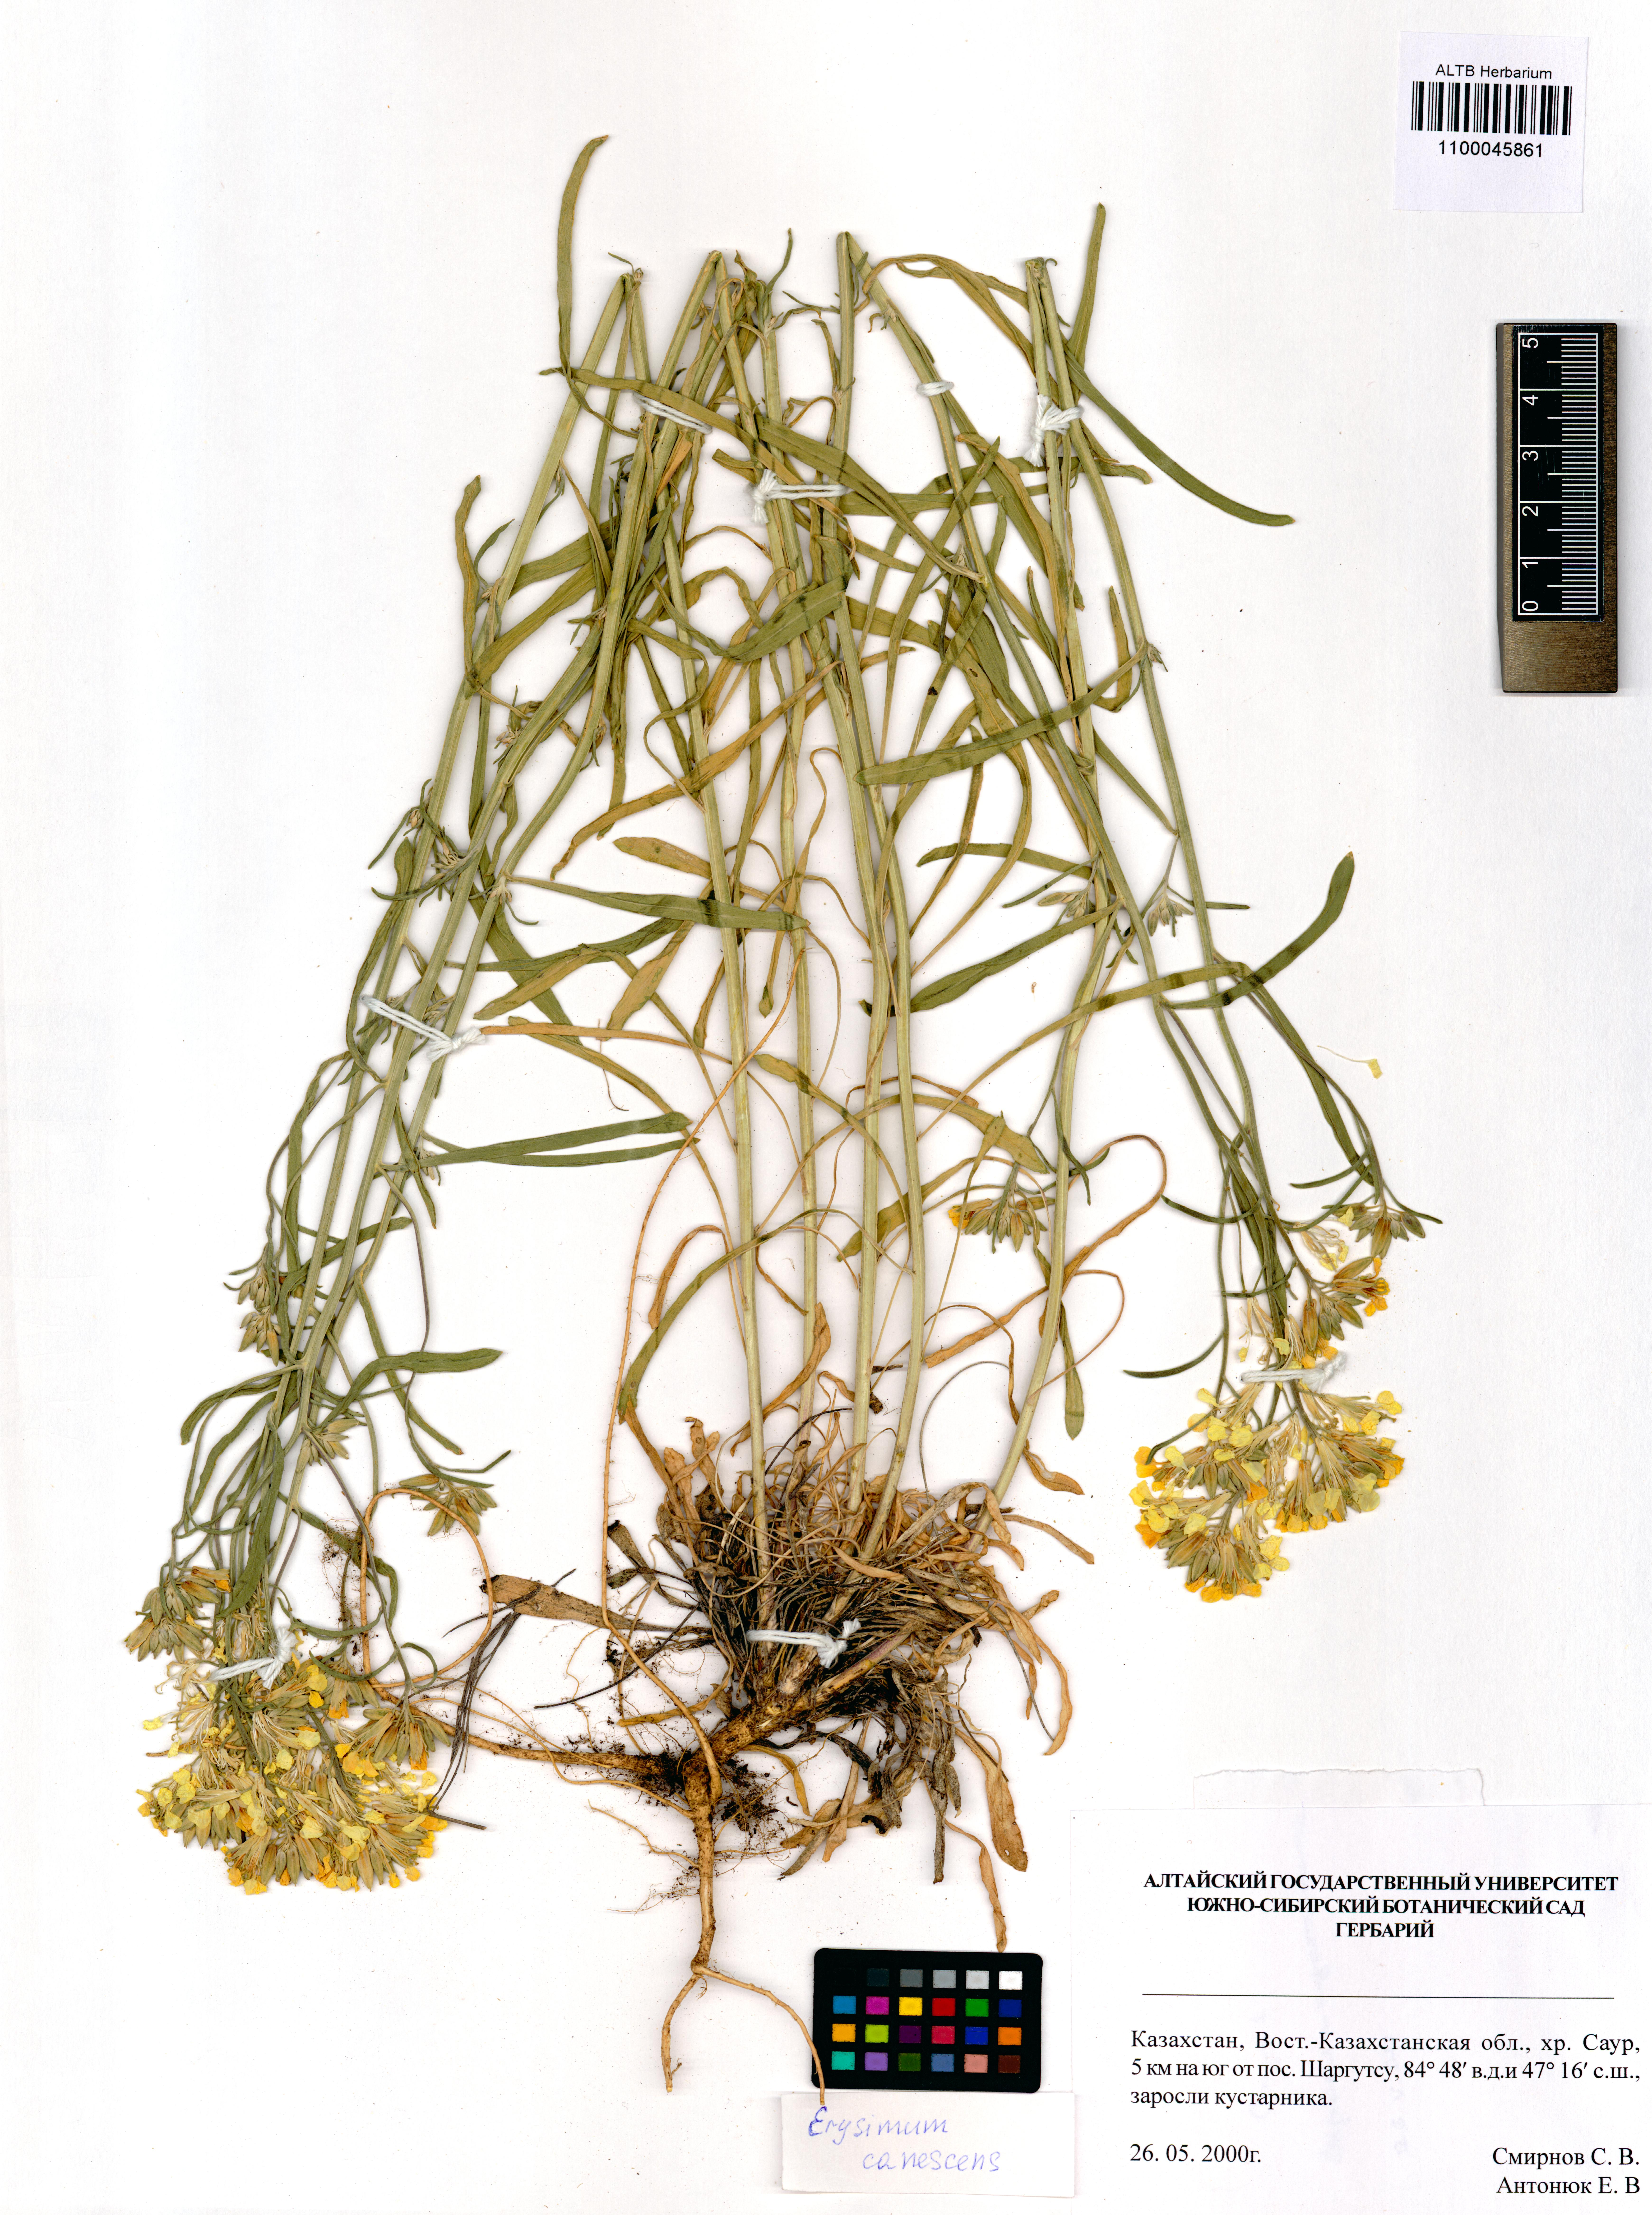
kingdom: Plantae
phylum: Tracheophyta
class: Magnoliopsida
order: Brassicales
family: Brassicaceae
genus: Erysimum
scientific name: Erysimum canescens
